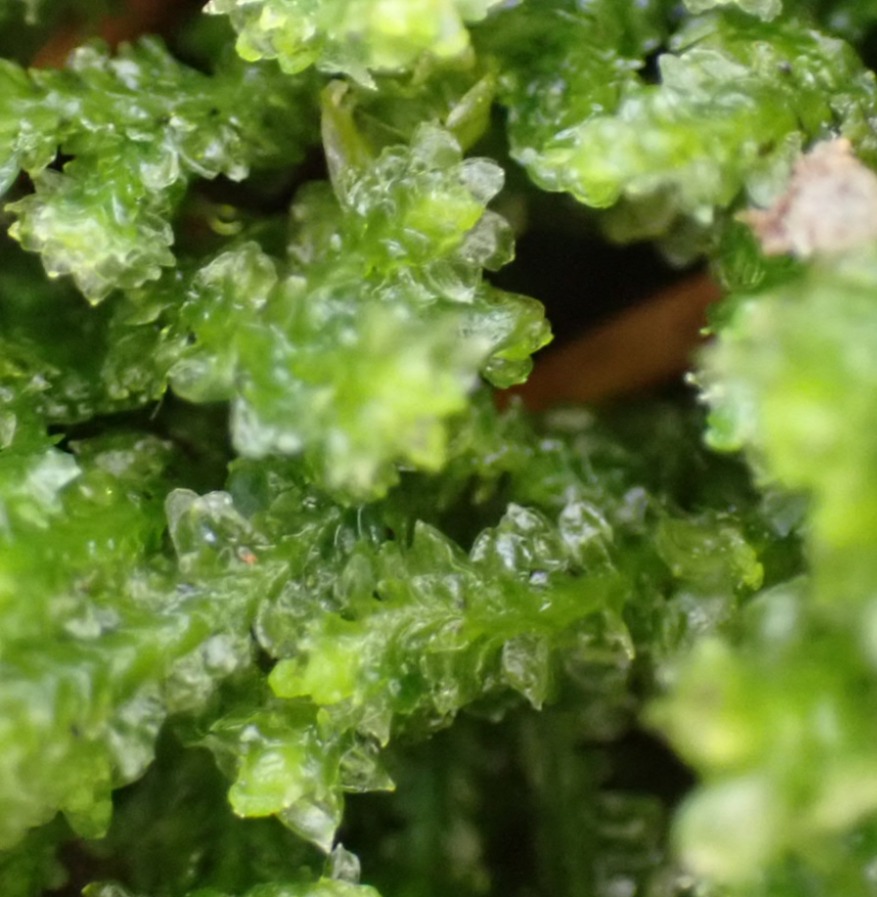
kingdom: Plantae
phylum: Marchantiophyta
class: Jungermanniopsida
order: Jungermanniales
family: Scapaniaceae
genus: Diplophyllum
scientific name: Diplophyllum albicans
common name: Stribet dobbeltblad
